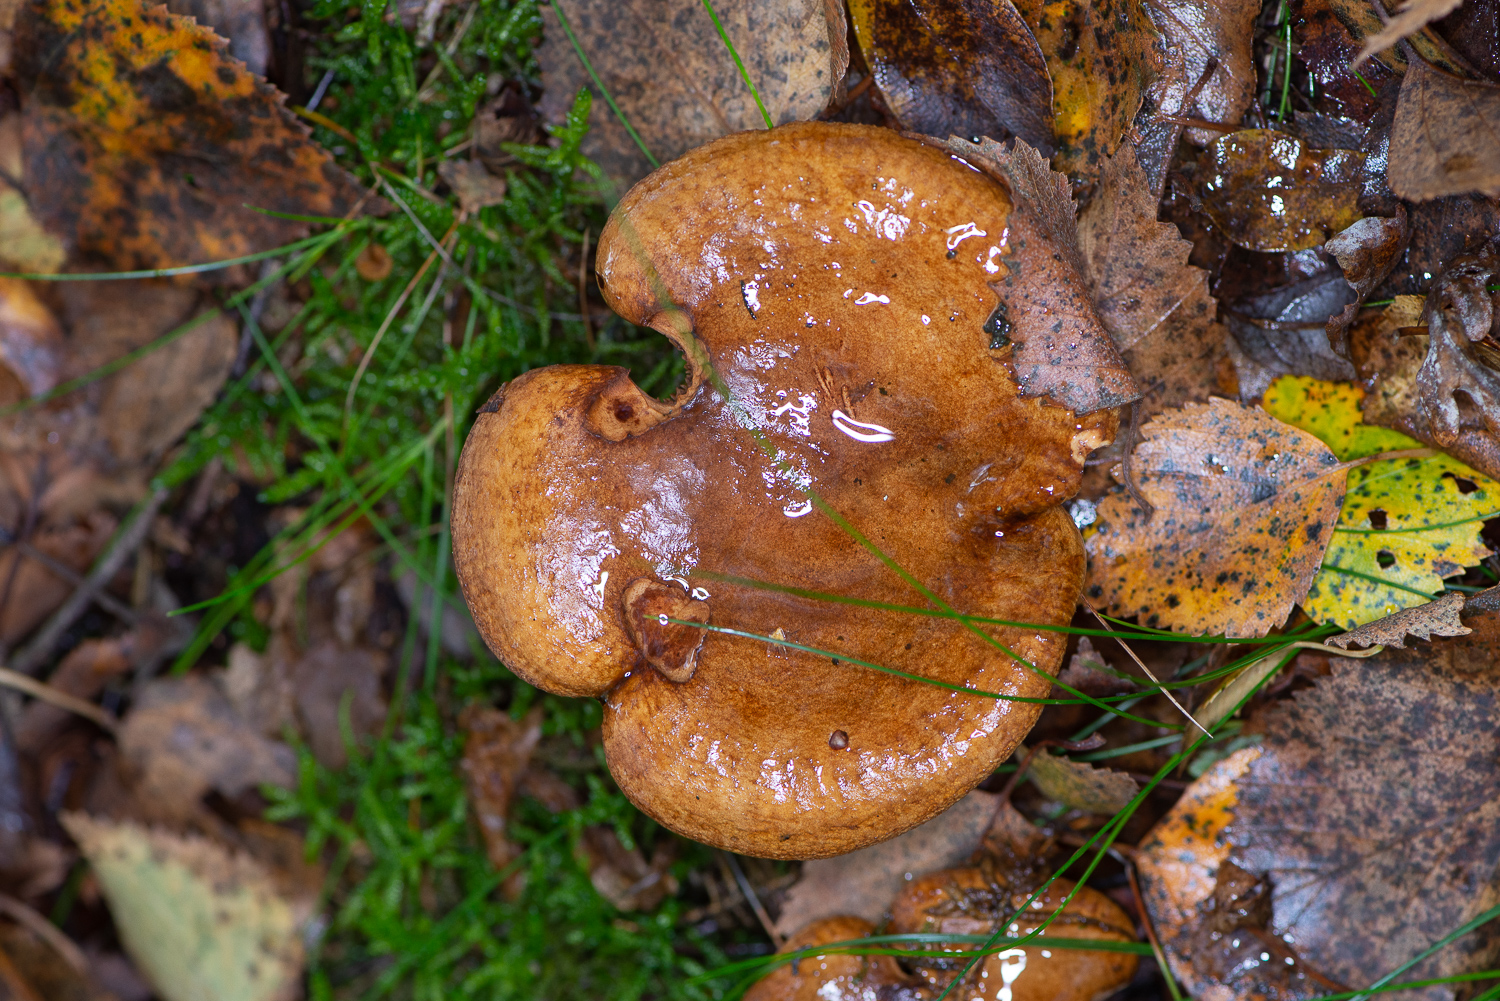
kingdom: Fungi
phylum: Basidiomycota
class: Agaricomycetes
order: Boletales
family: Paxillaceae
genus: Paxillus
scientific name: Paxillus involutus
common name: almindelig netbladhat
